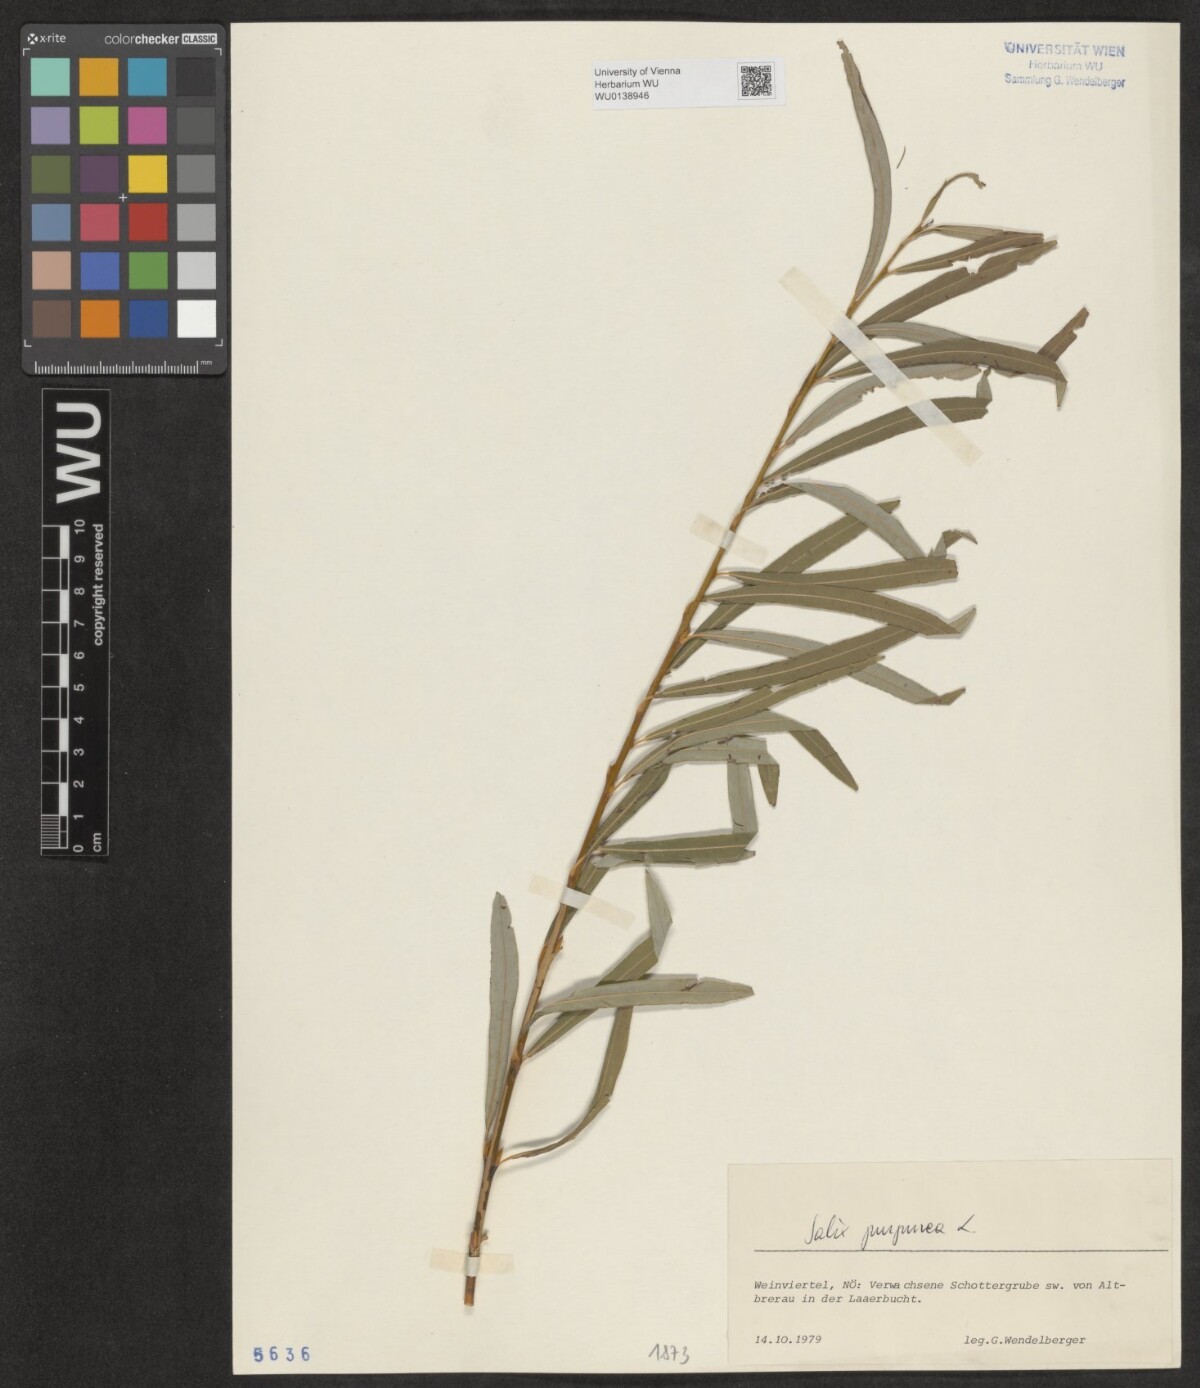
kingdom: Plantae
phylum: Tracheophyta
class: Magnoliopsida
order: Malpighiales
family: Salicaceae
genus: Salix
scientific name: Salix purpurea
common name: Purple willow
